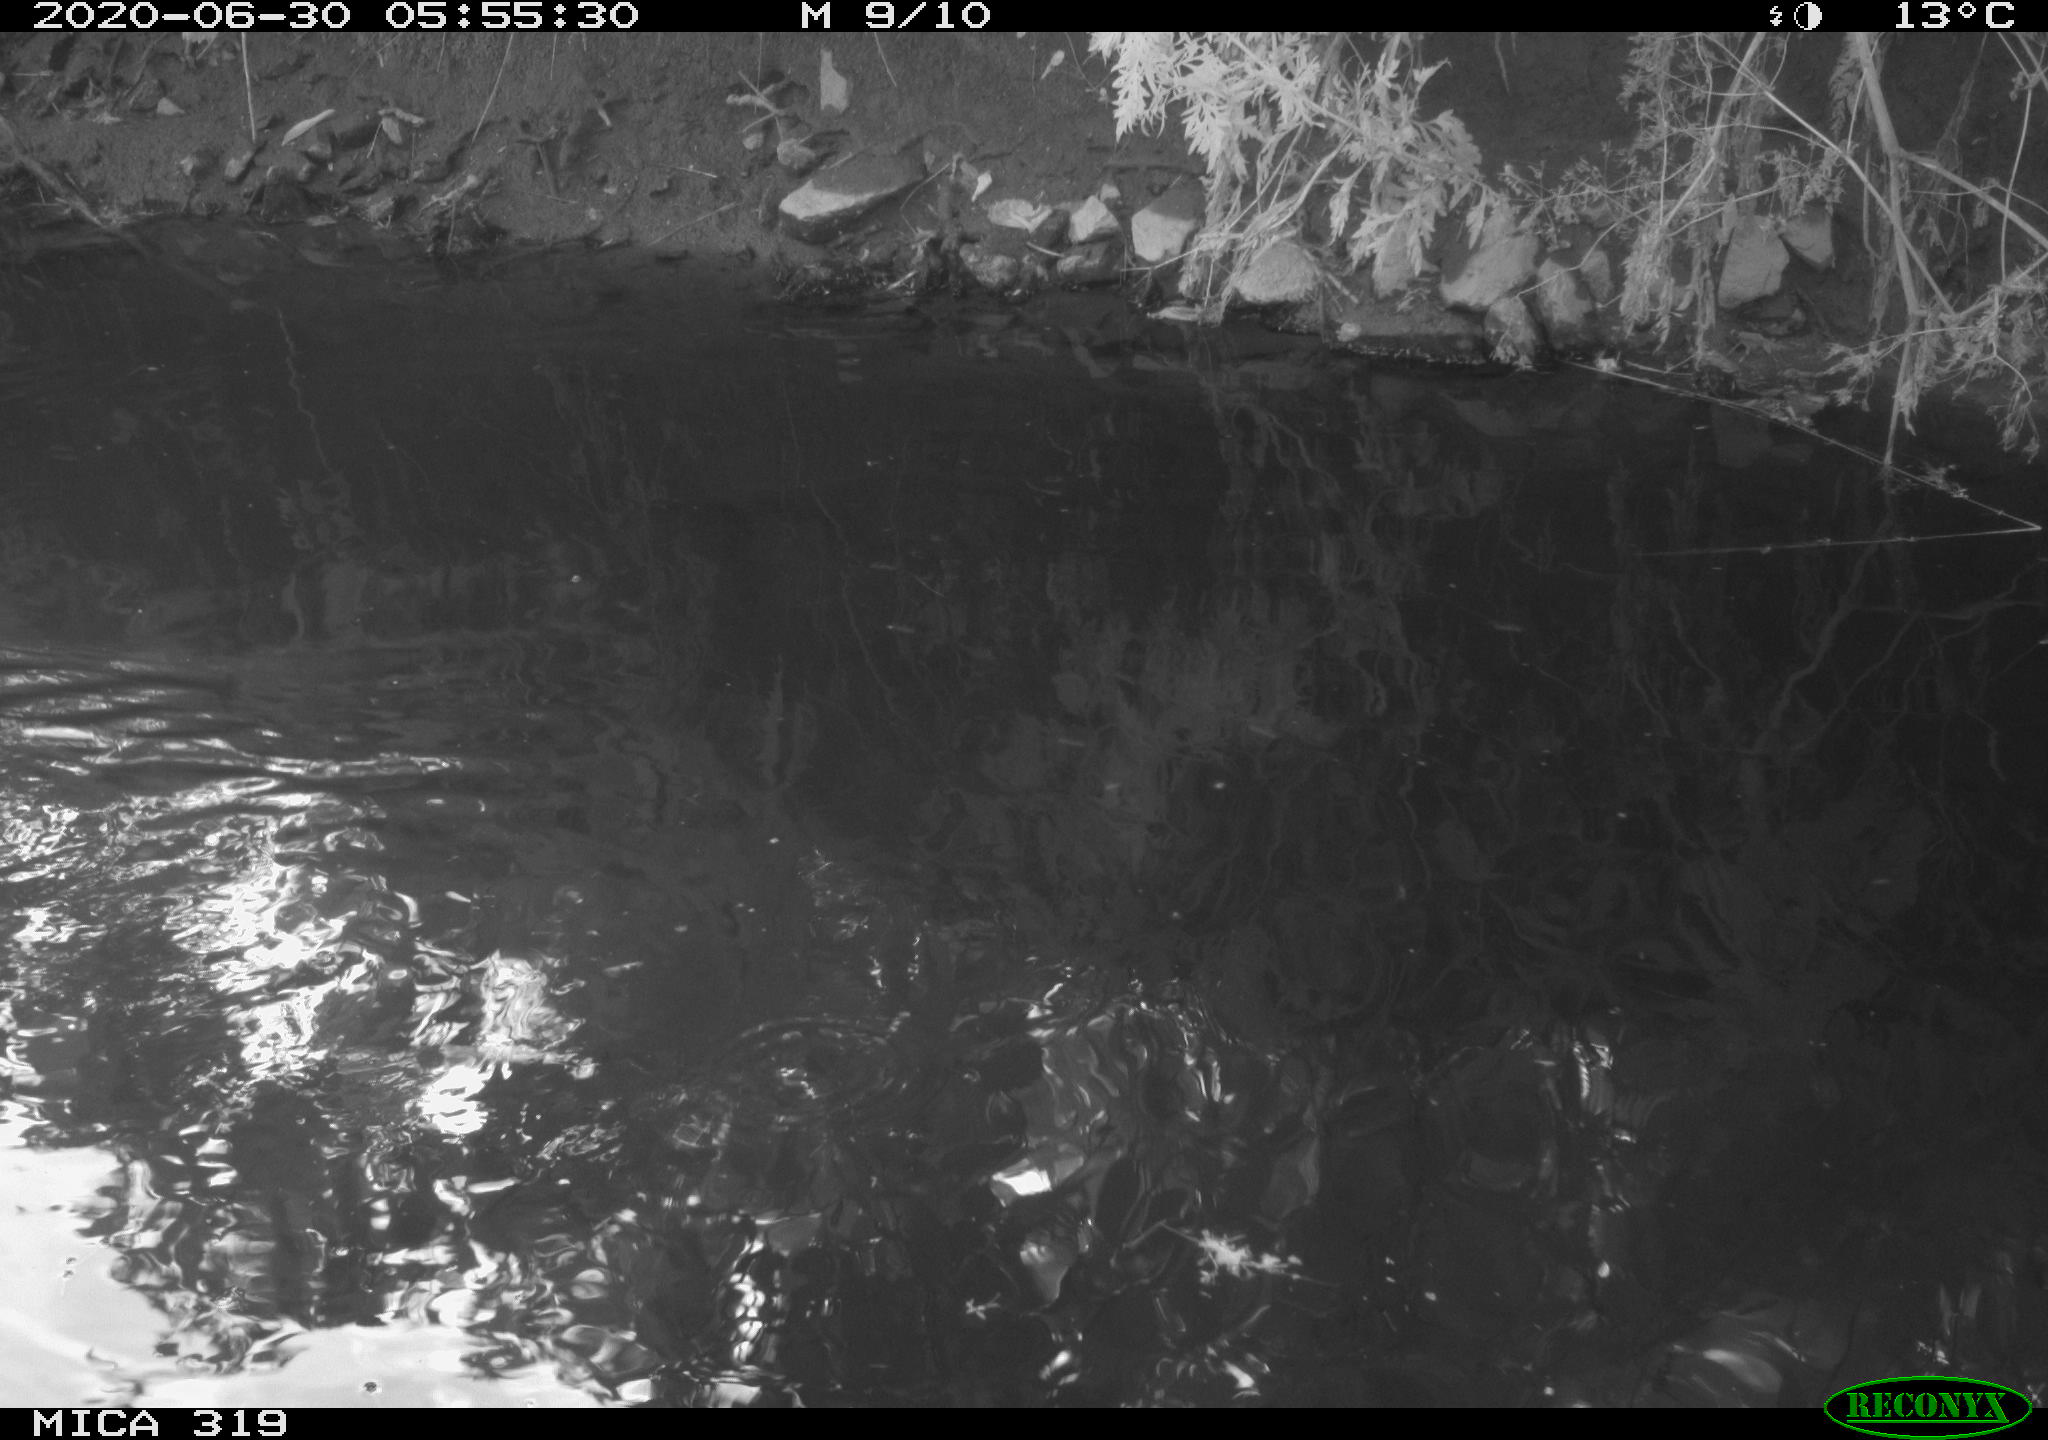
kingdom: Animalia
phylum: Chordata
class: Aves
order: Anseriformes
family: Anatidae
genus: Anas
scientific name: Anas platyrhynchos
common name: Mallard
